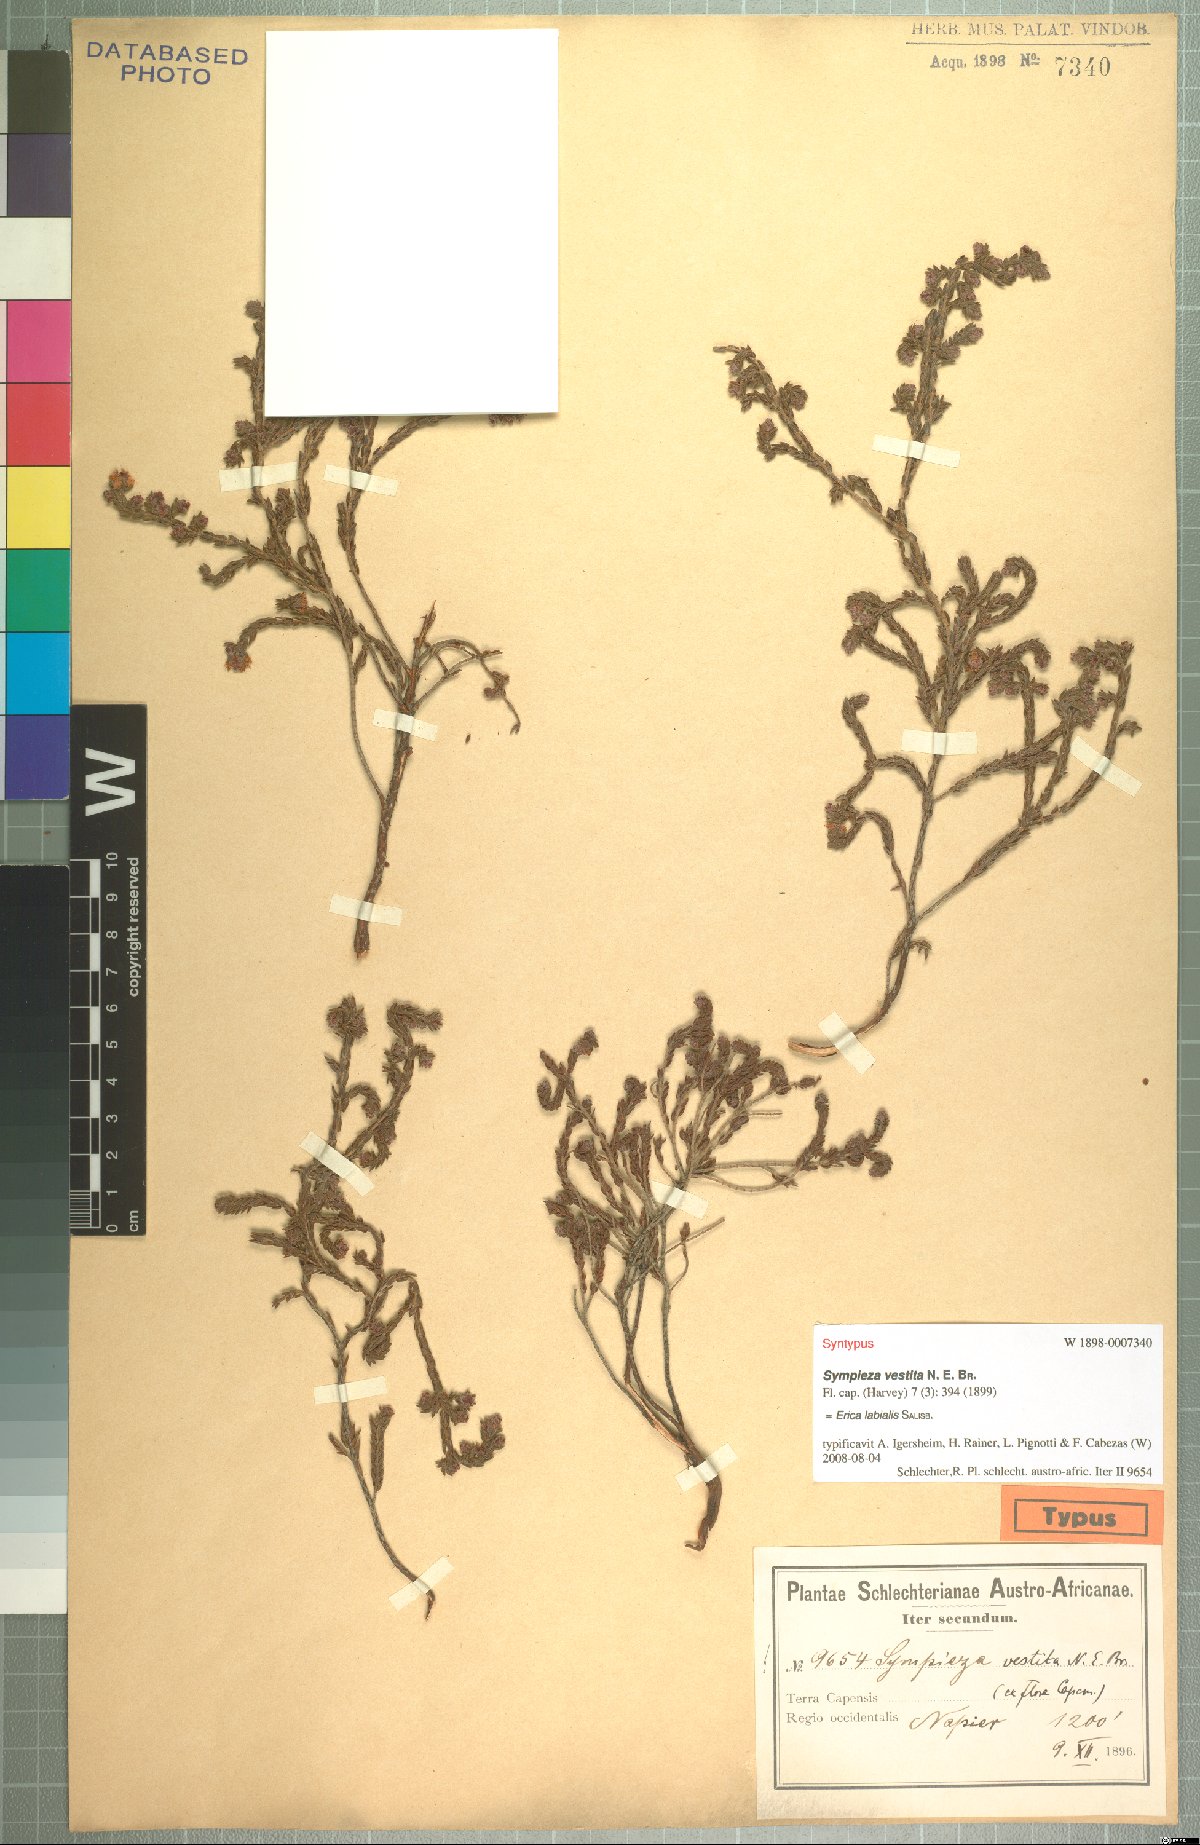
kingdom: Plantae
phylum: Tracheophyta
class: Magnoliopsida
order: Ericales
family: Ericaceae
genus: Erica
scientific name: Erica labialis
